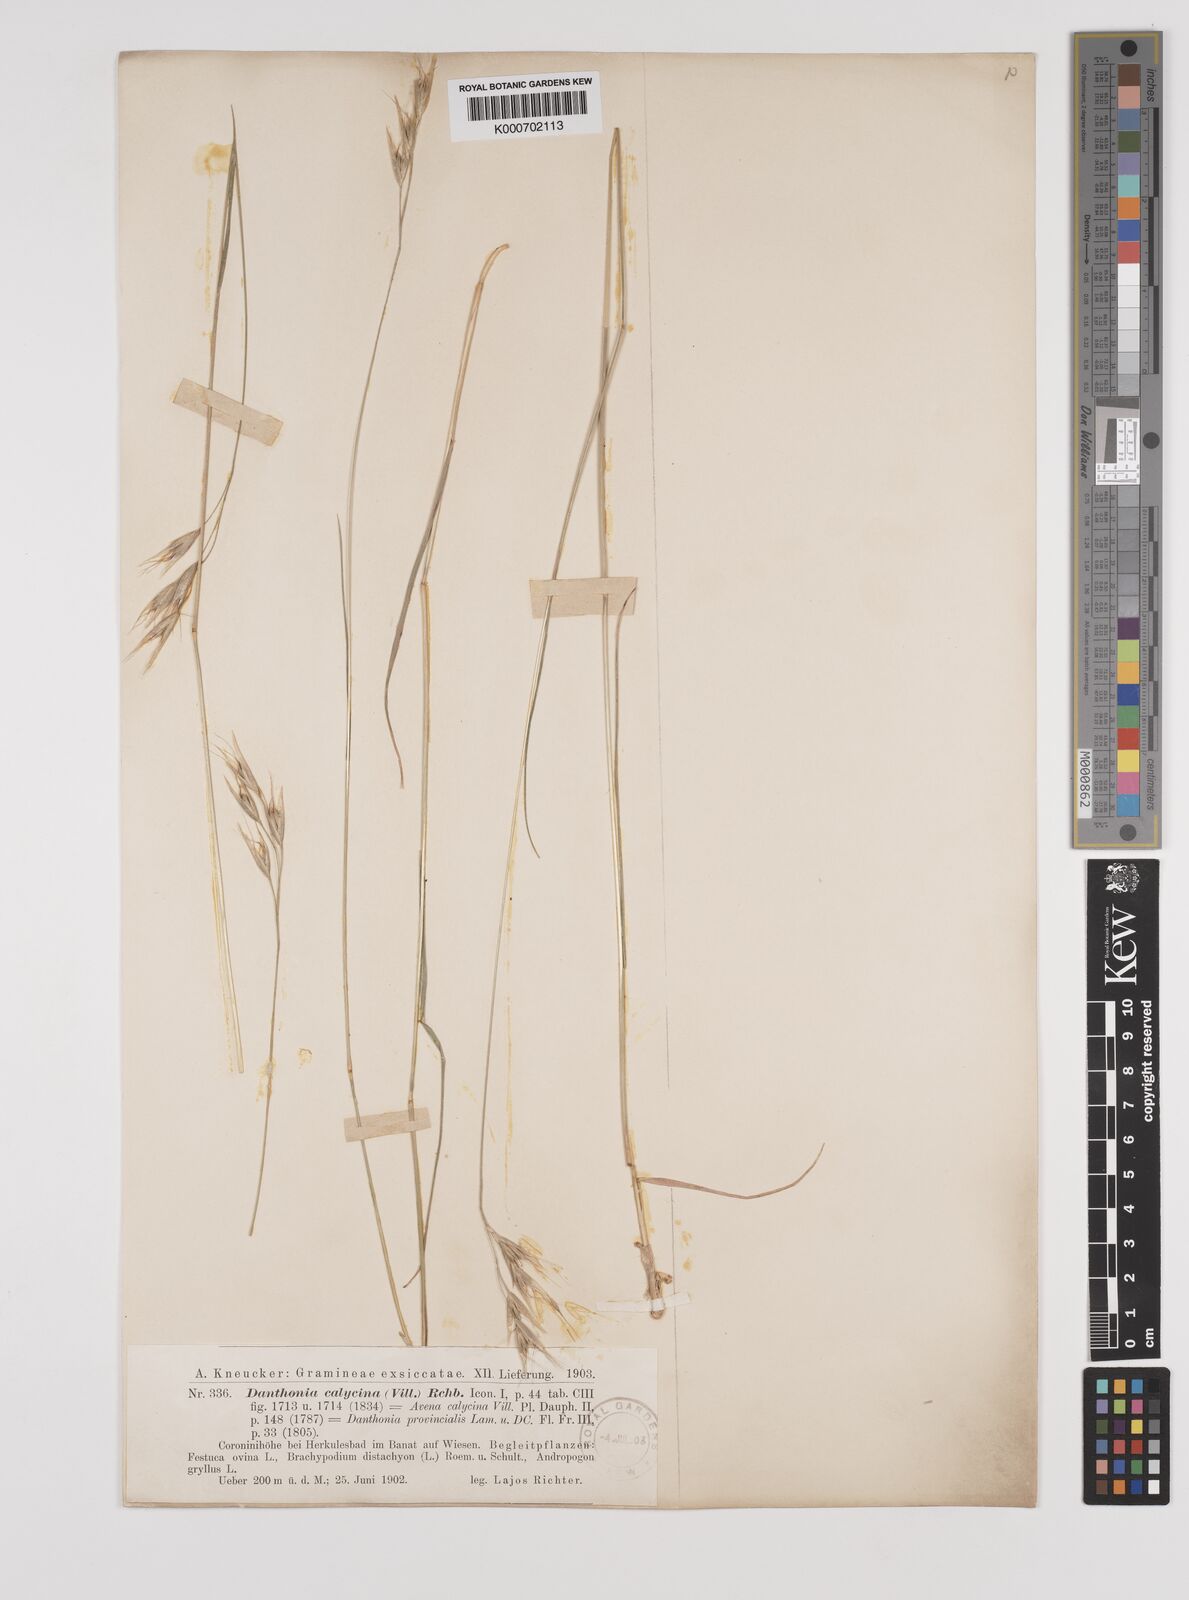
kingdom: Plantae
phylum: Tracheophyta
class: Liliopsida
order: Poales
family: Poaceae
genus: Danthonia
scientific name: Danthonia alpina
